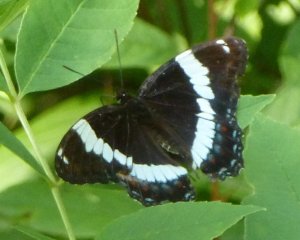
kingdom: Animalia
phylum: Arthropoda
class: Insecta
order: Lepidoptera
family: Nymphalidae
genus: Limenitis
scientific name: Limenitis arthemis
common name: Red-spotted Admiral
